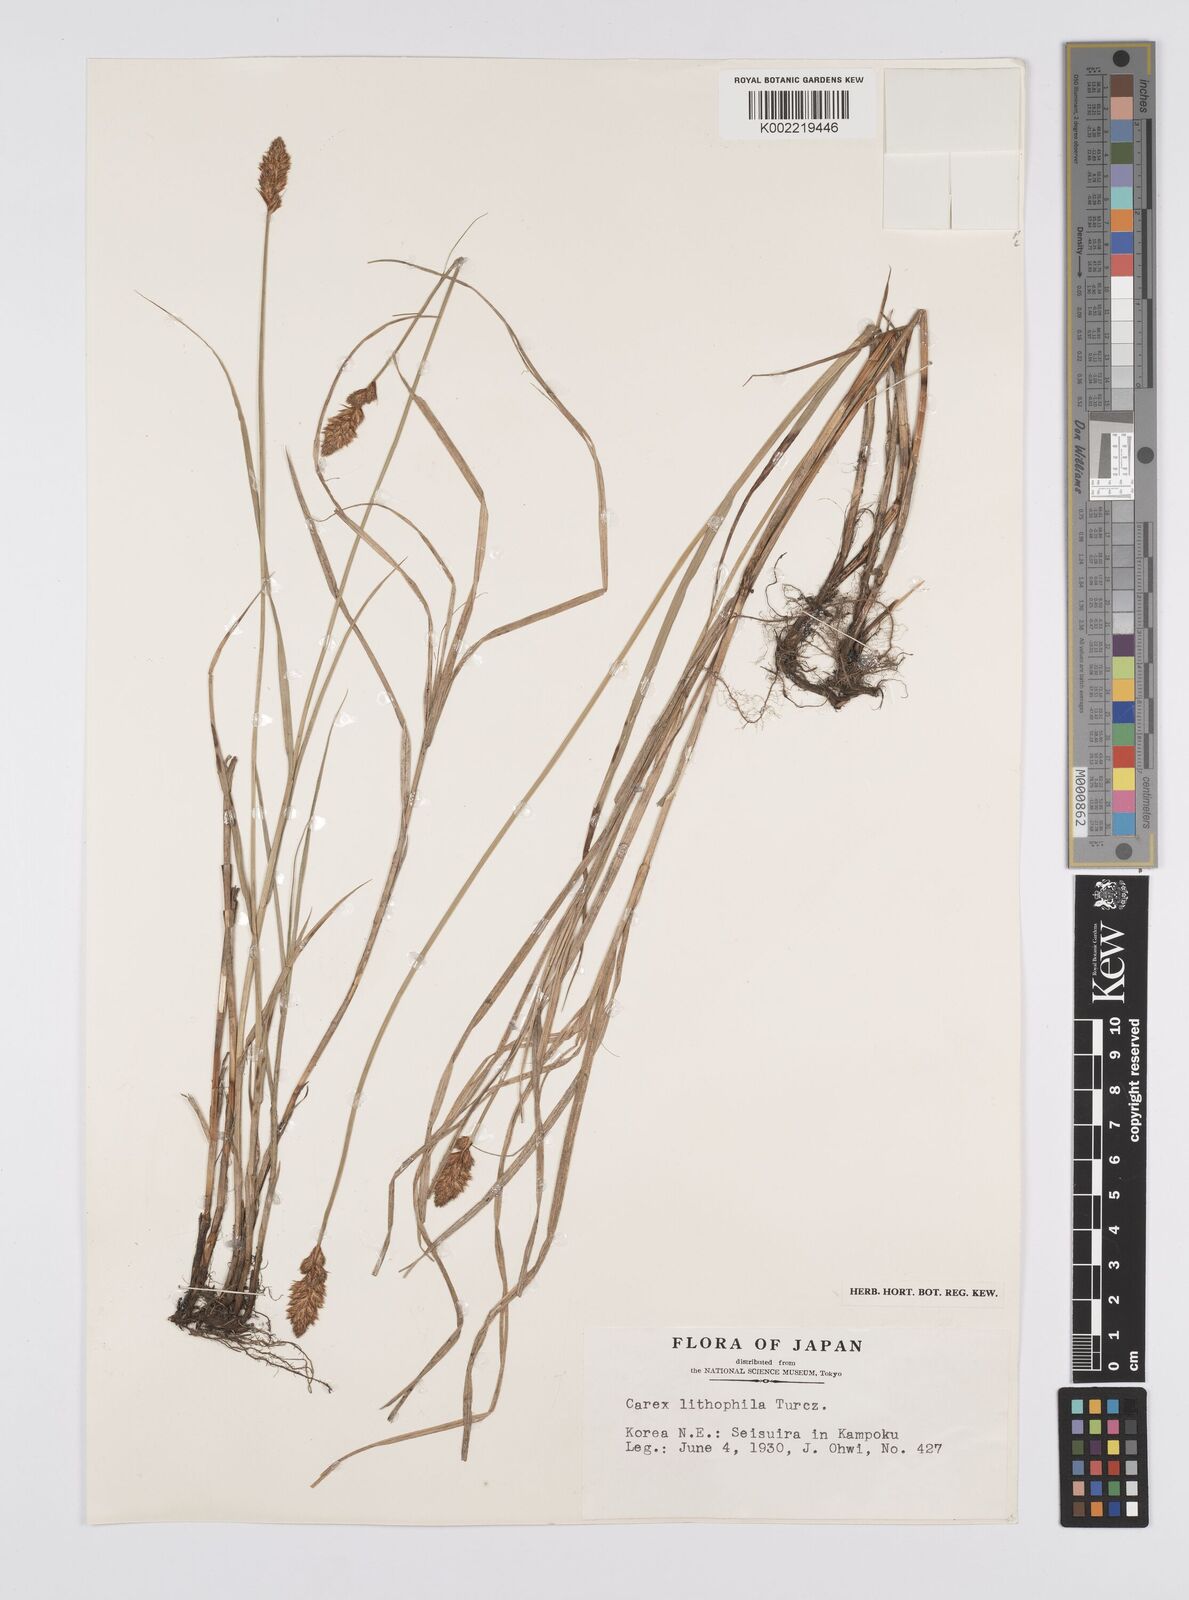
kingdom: Plantae
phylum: Tracheophyta
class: Liliopsida
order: Poales
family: Cyperaceae
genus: Carex
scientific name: Carex disticha
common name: Brown sedge
